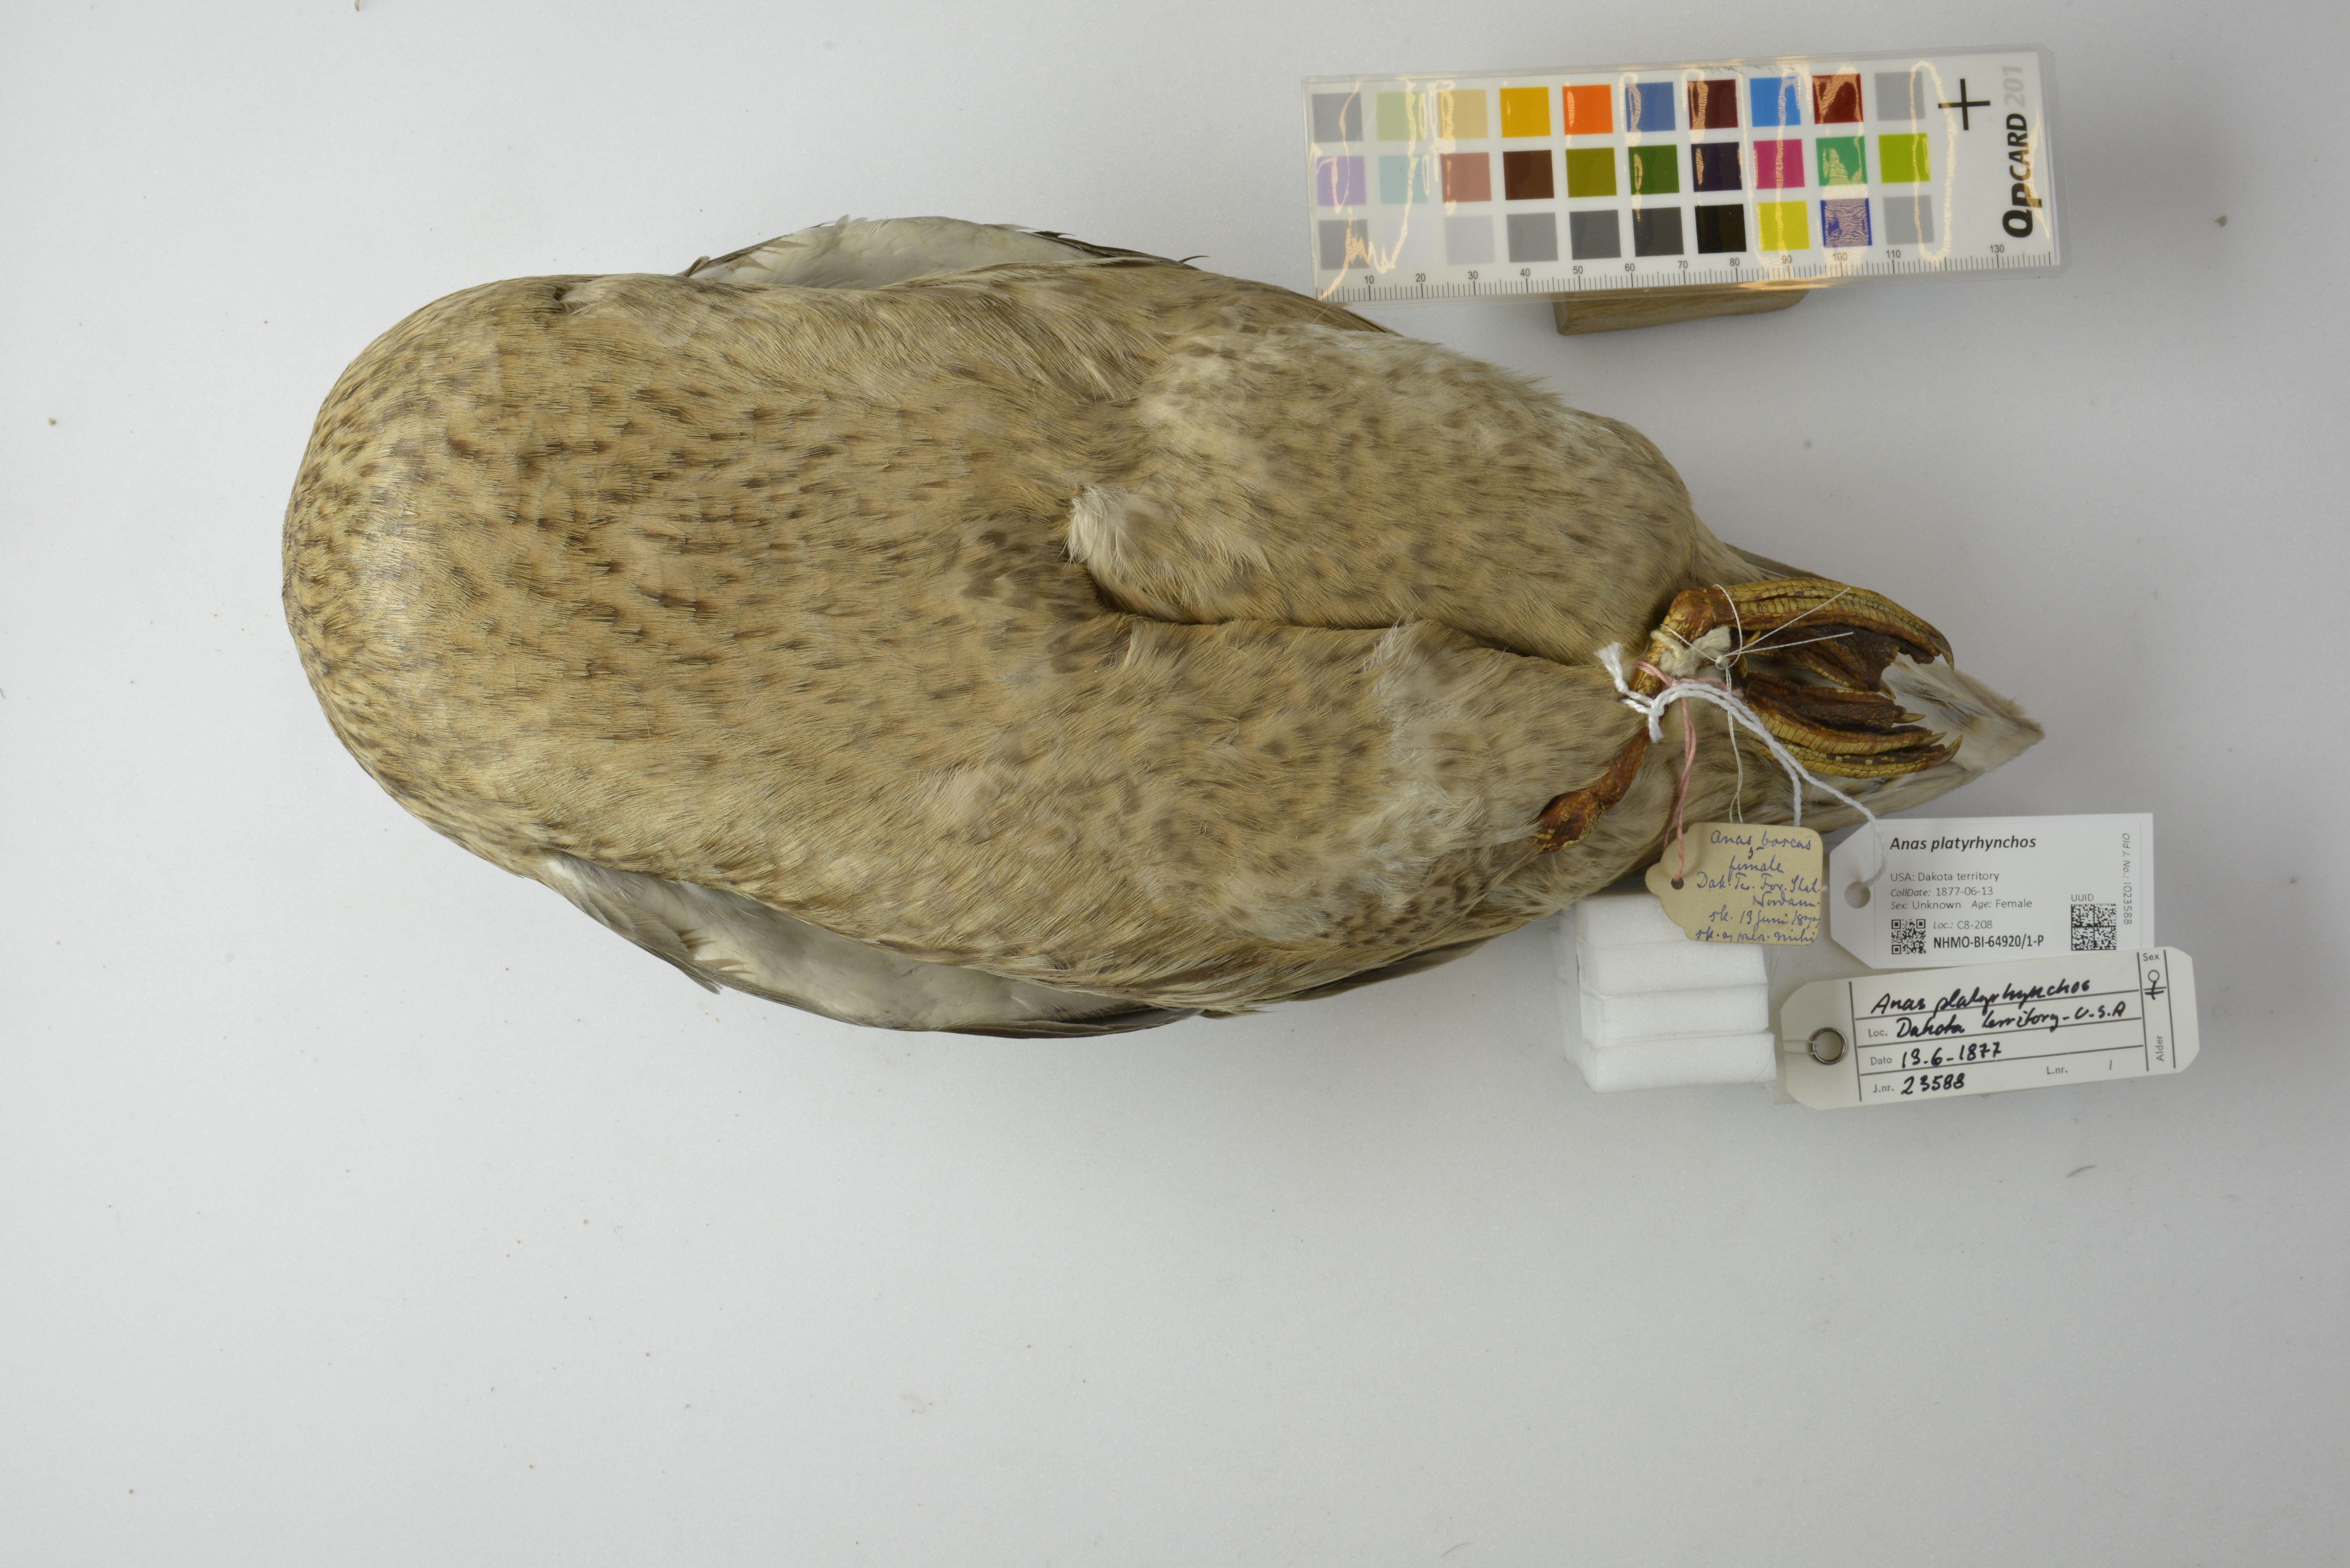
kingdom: Animalia
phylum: Chordata
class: Aves
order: Anseriformes
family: Anatidae
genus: Anas
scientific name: Anas platyrhynchos
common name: Mallard
